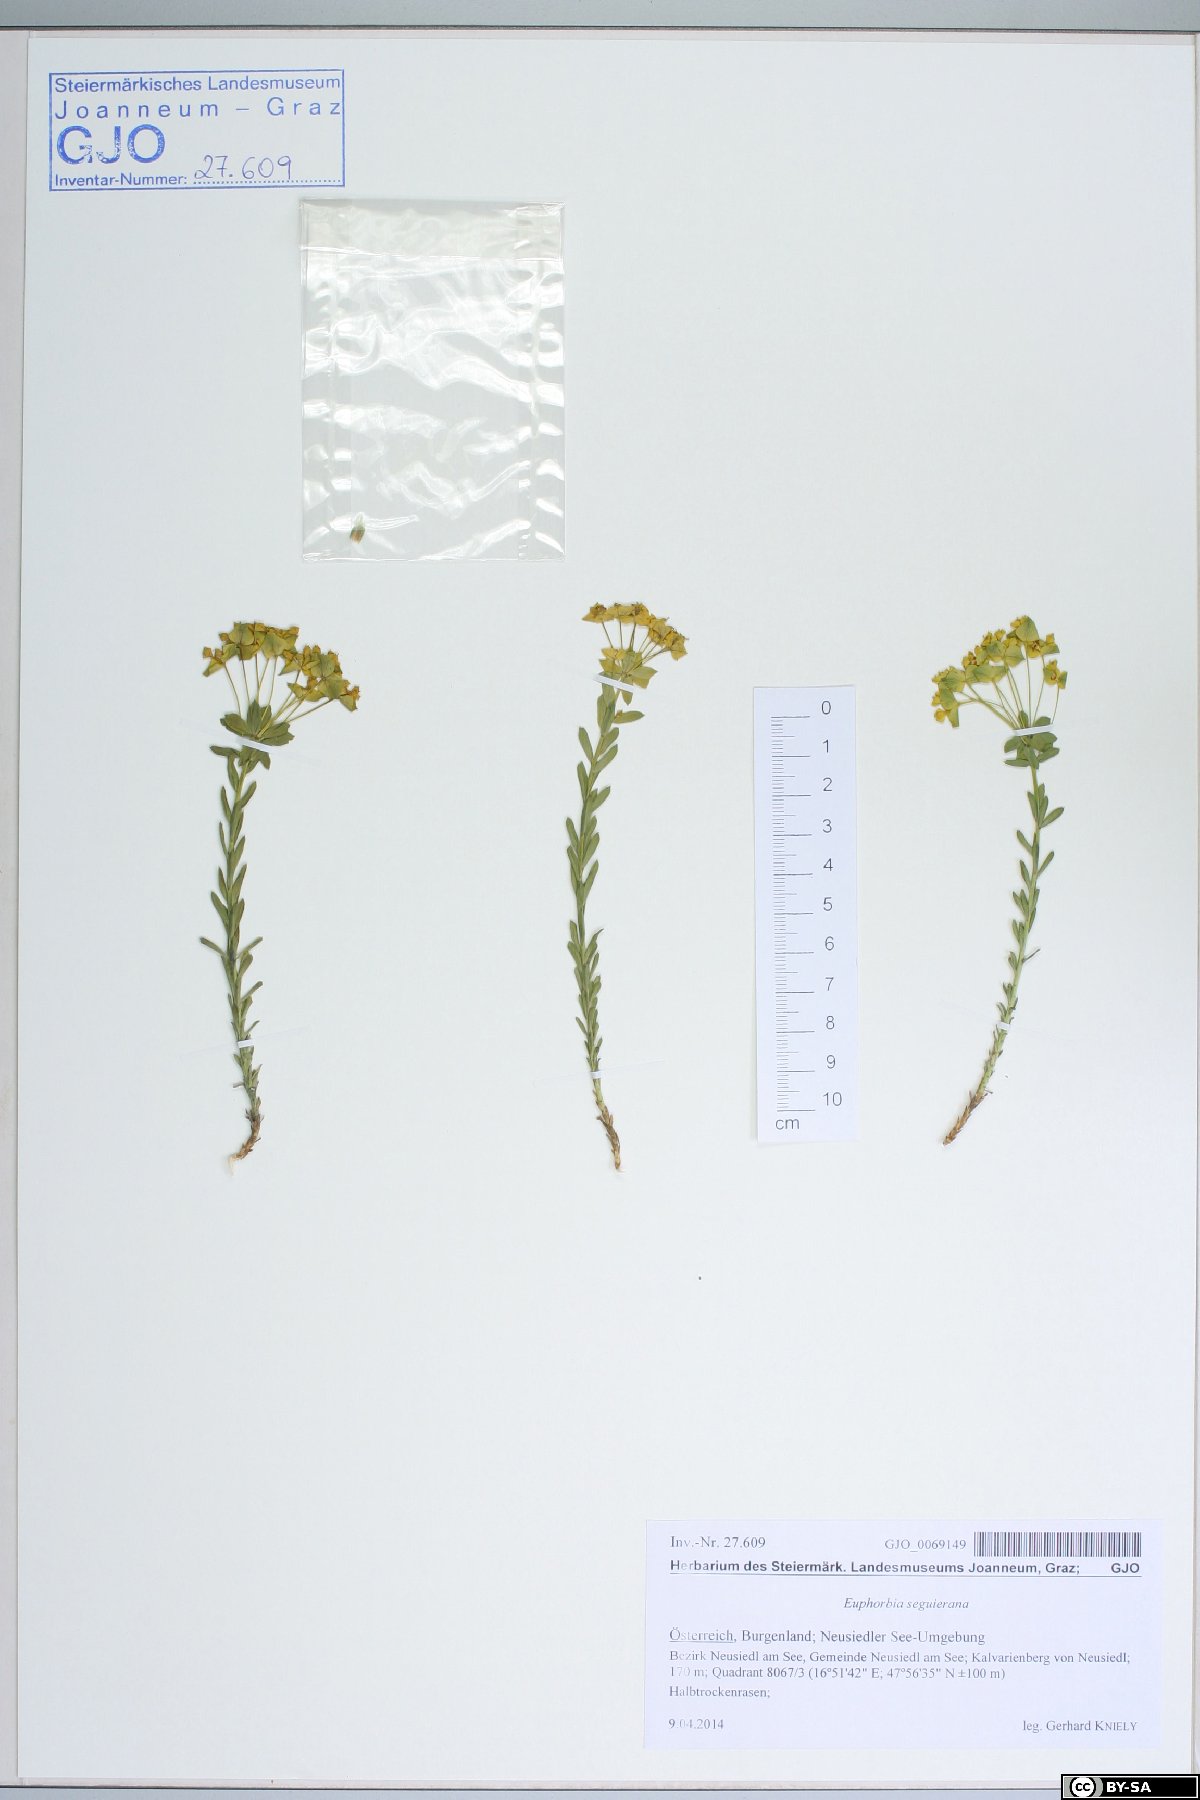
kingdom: Plantae
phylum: Tracheophyta
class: Magnoliopsida
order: Malpighiales
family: Euphorbiaceae
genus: Euphorbia
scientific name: Euphorbia seguieriana
